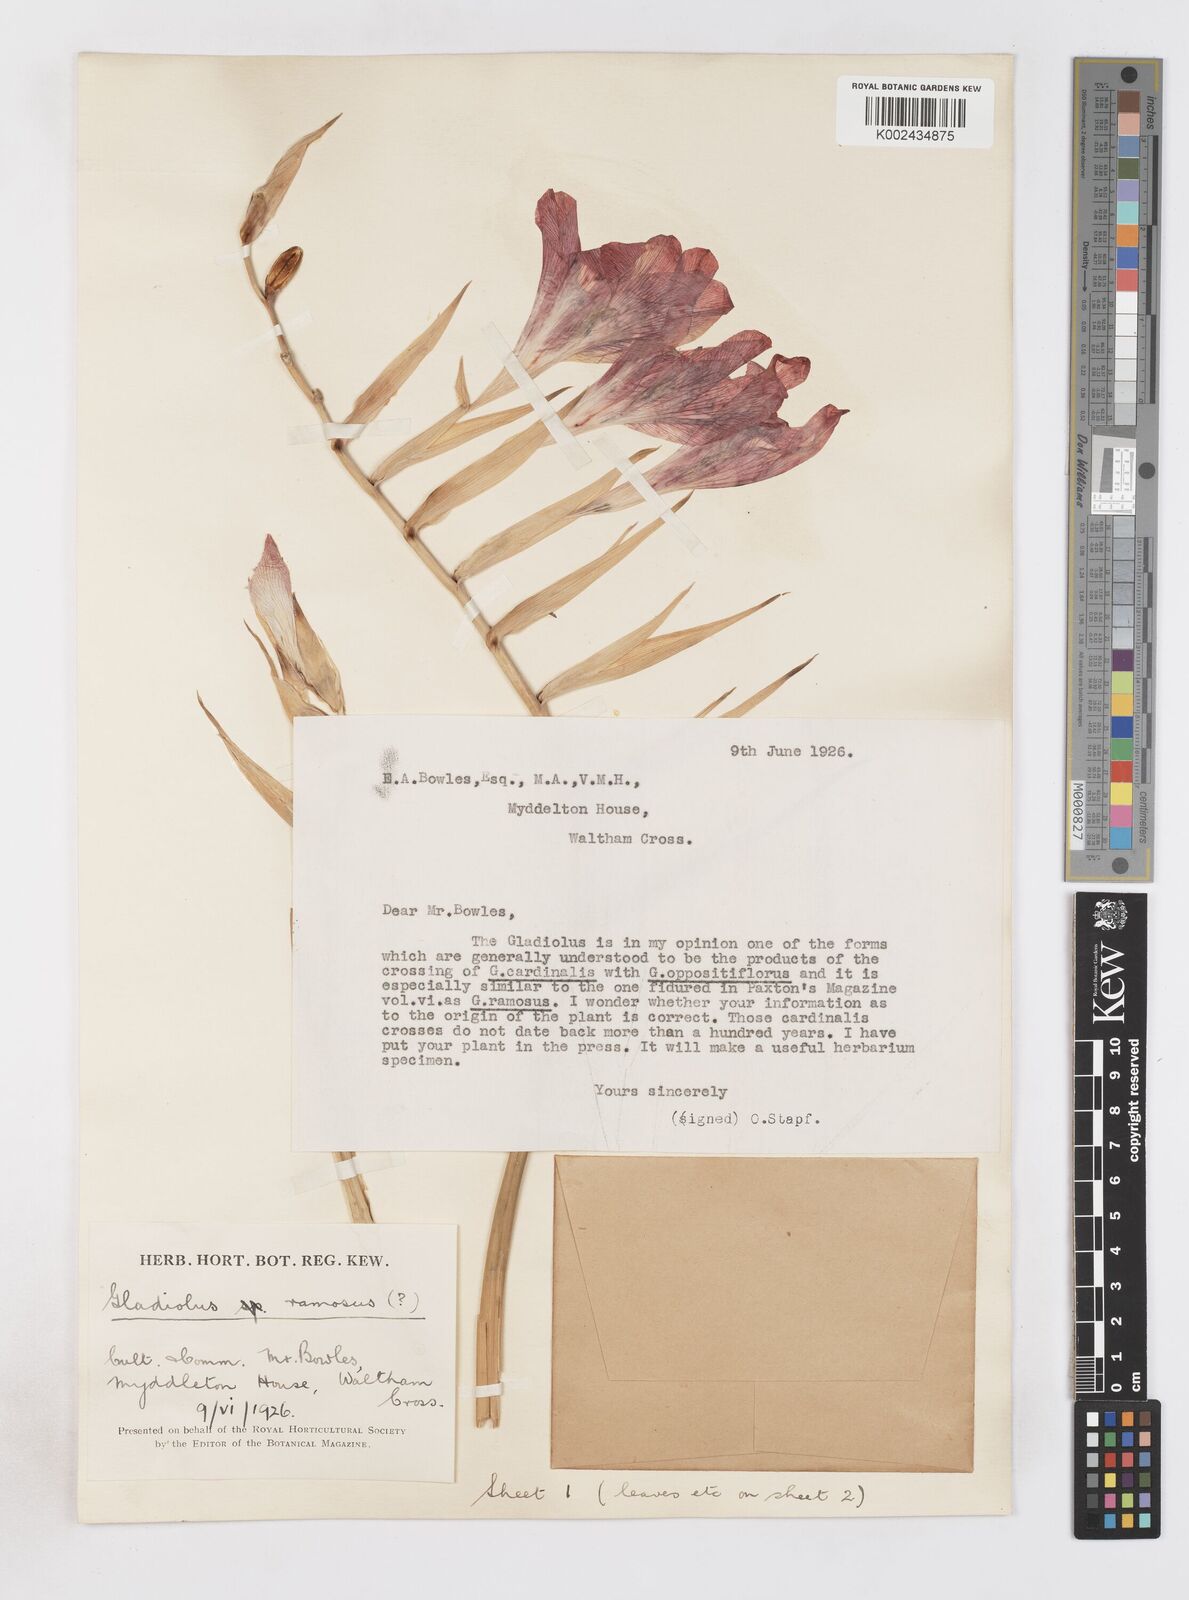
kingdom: Plantae
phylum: Tracheophyta
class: Liliopsida
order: Asparagales
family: Iridaceae
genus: Gladiolus
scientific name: Gladiolus cardinalis
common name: New year-lily
